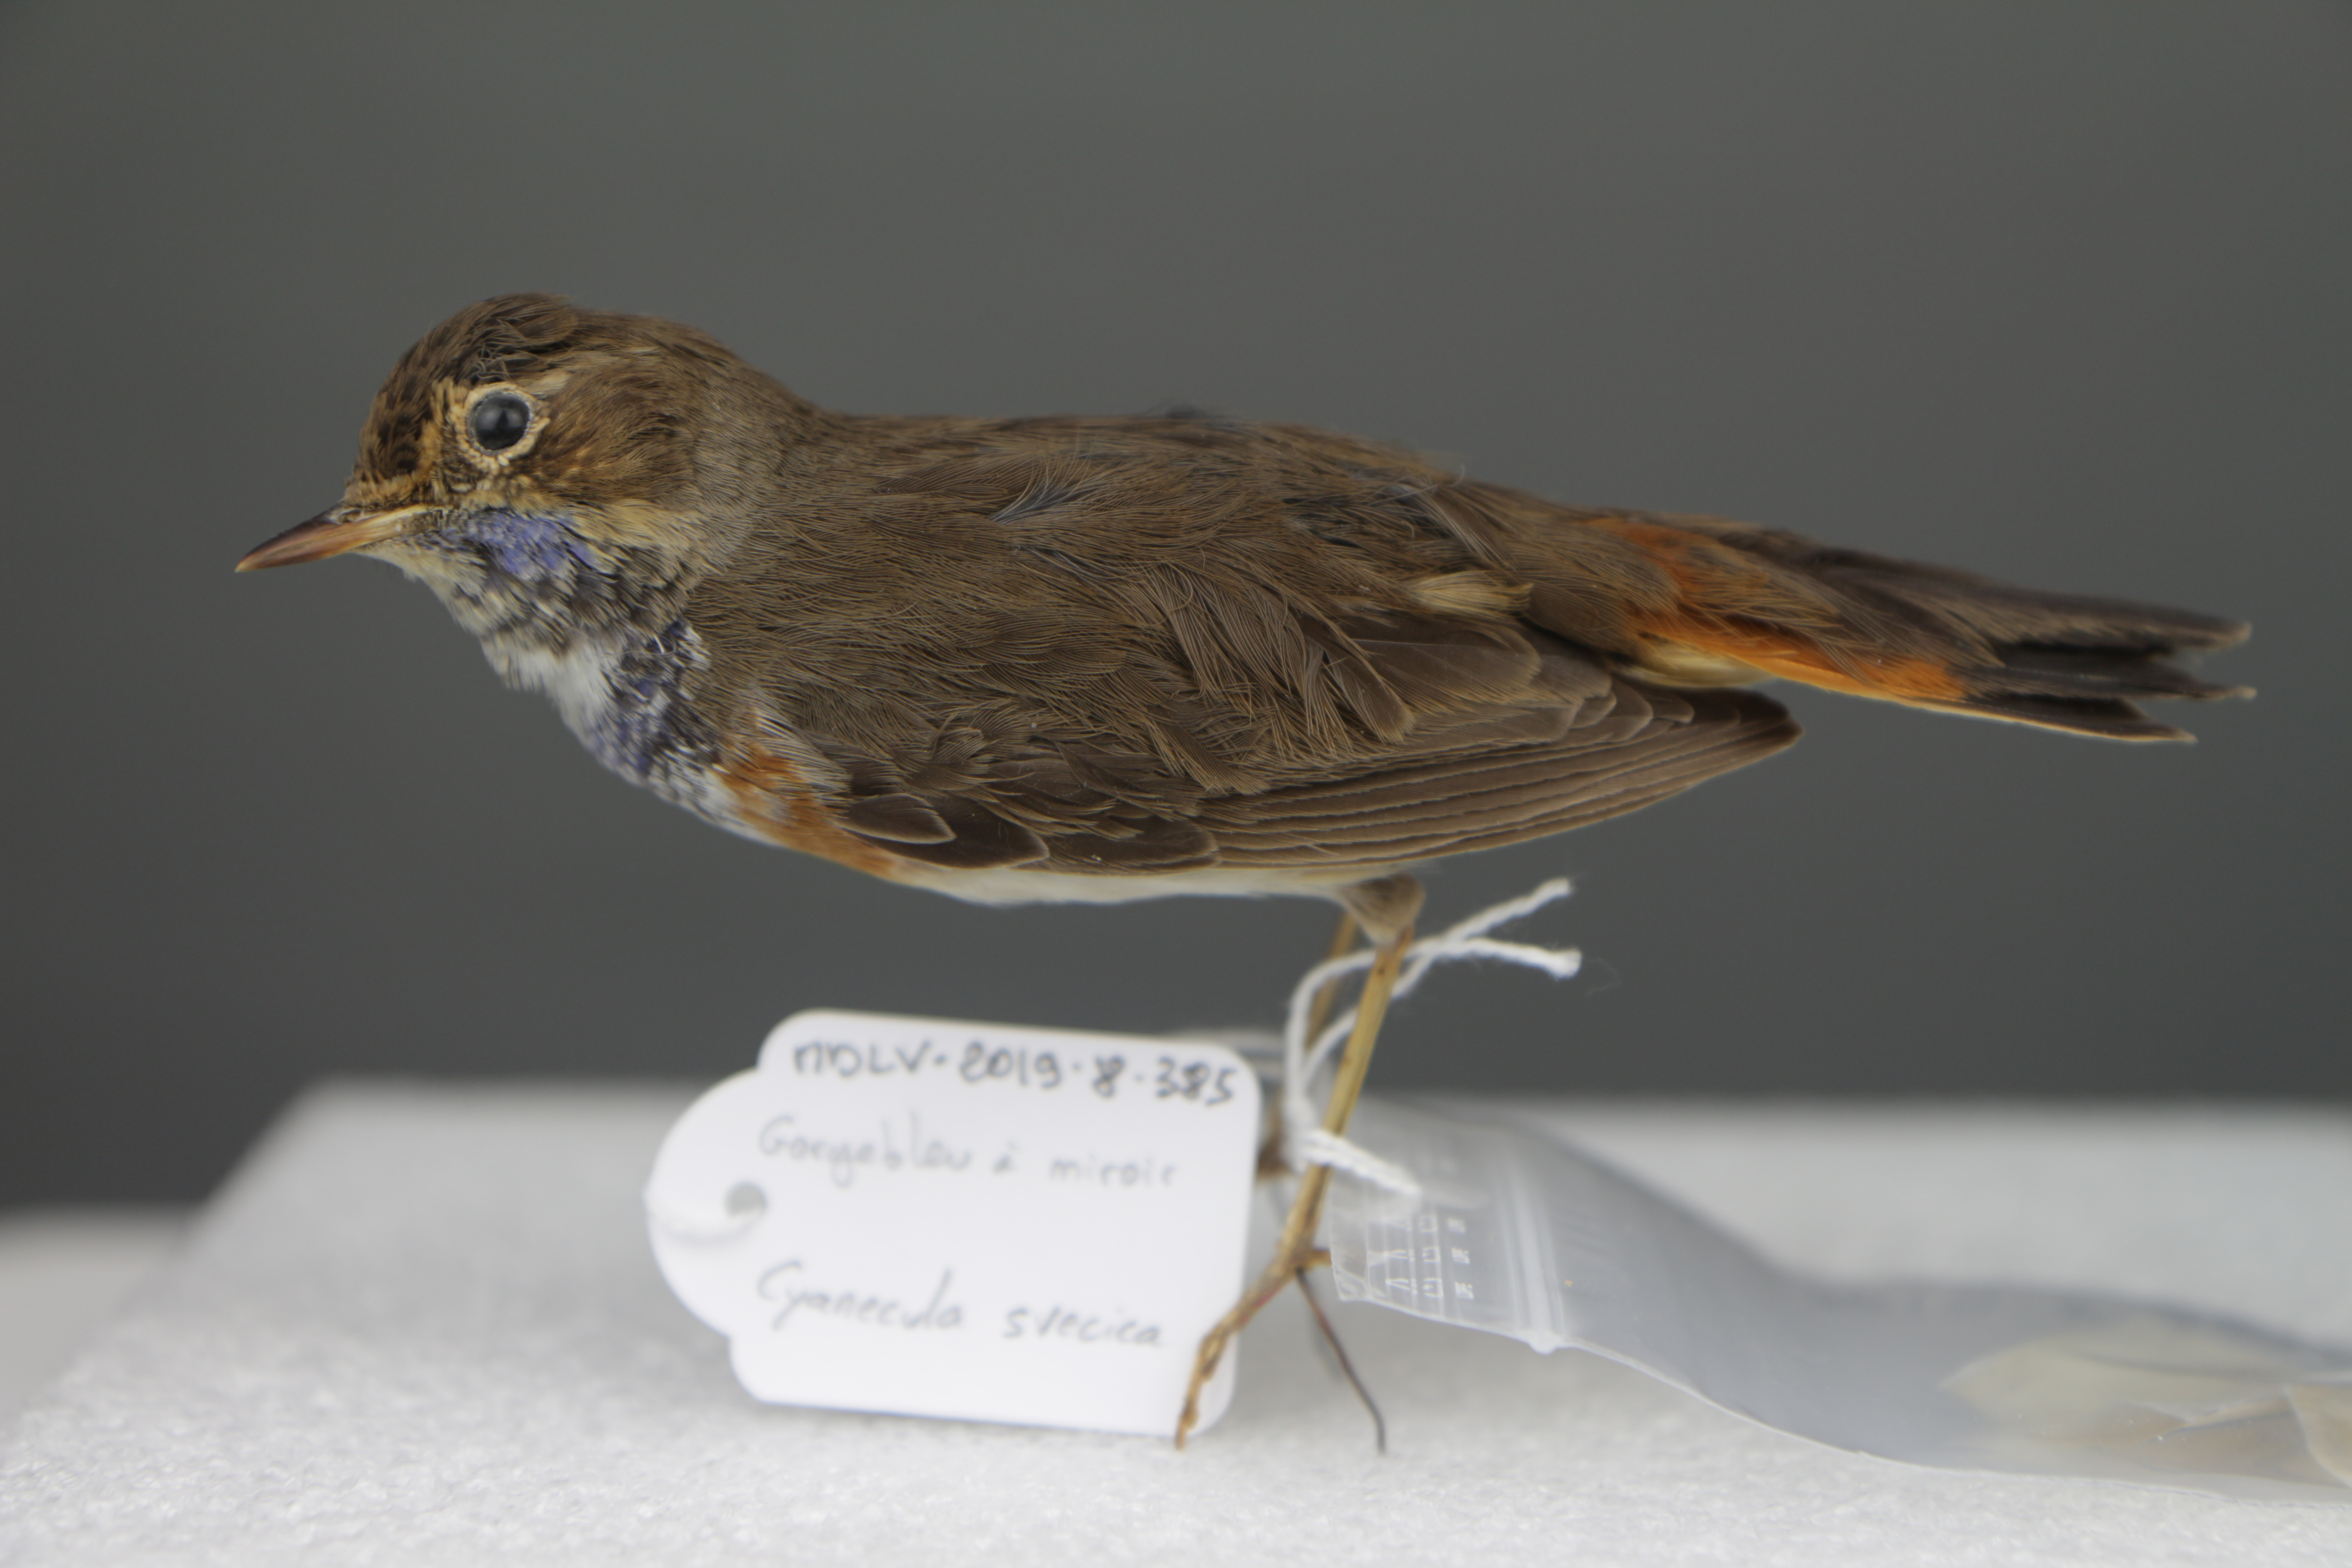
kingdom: Animalia
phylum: Chordata
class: Aves
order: Passeriformes
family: Muscicapidae
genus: Luscinia
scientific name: Luscinia svecica
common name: Bluethroat
